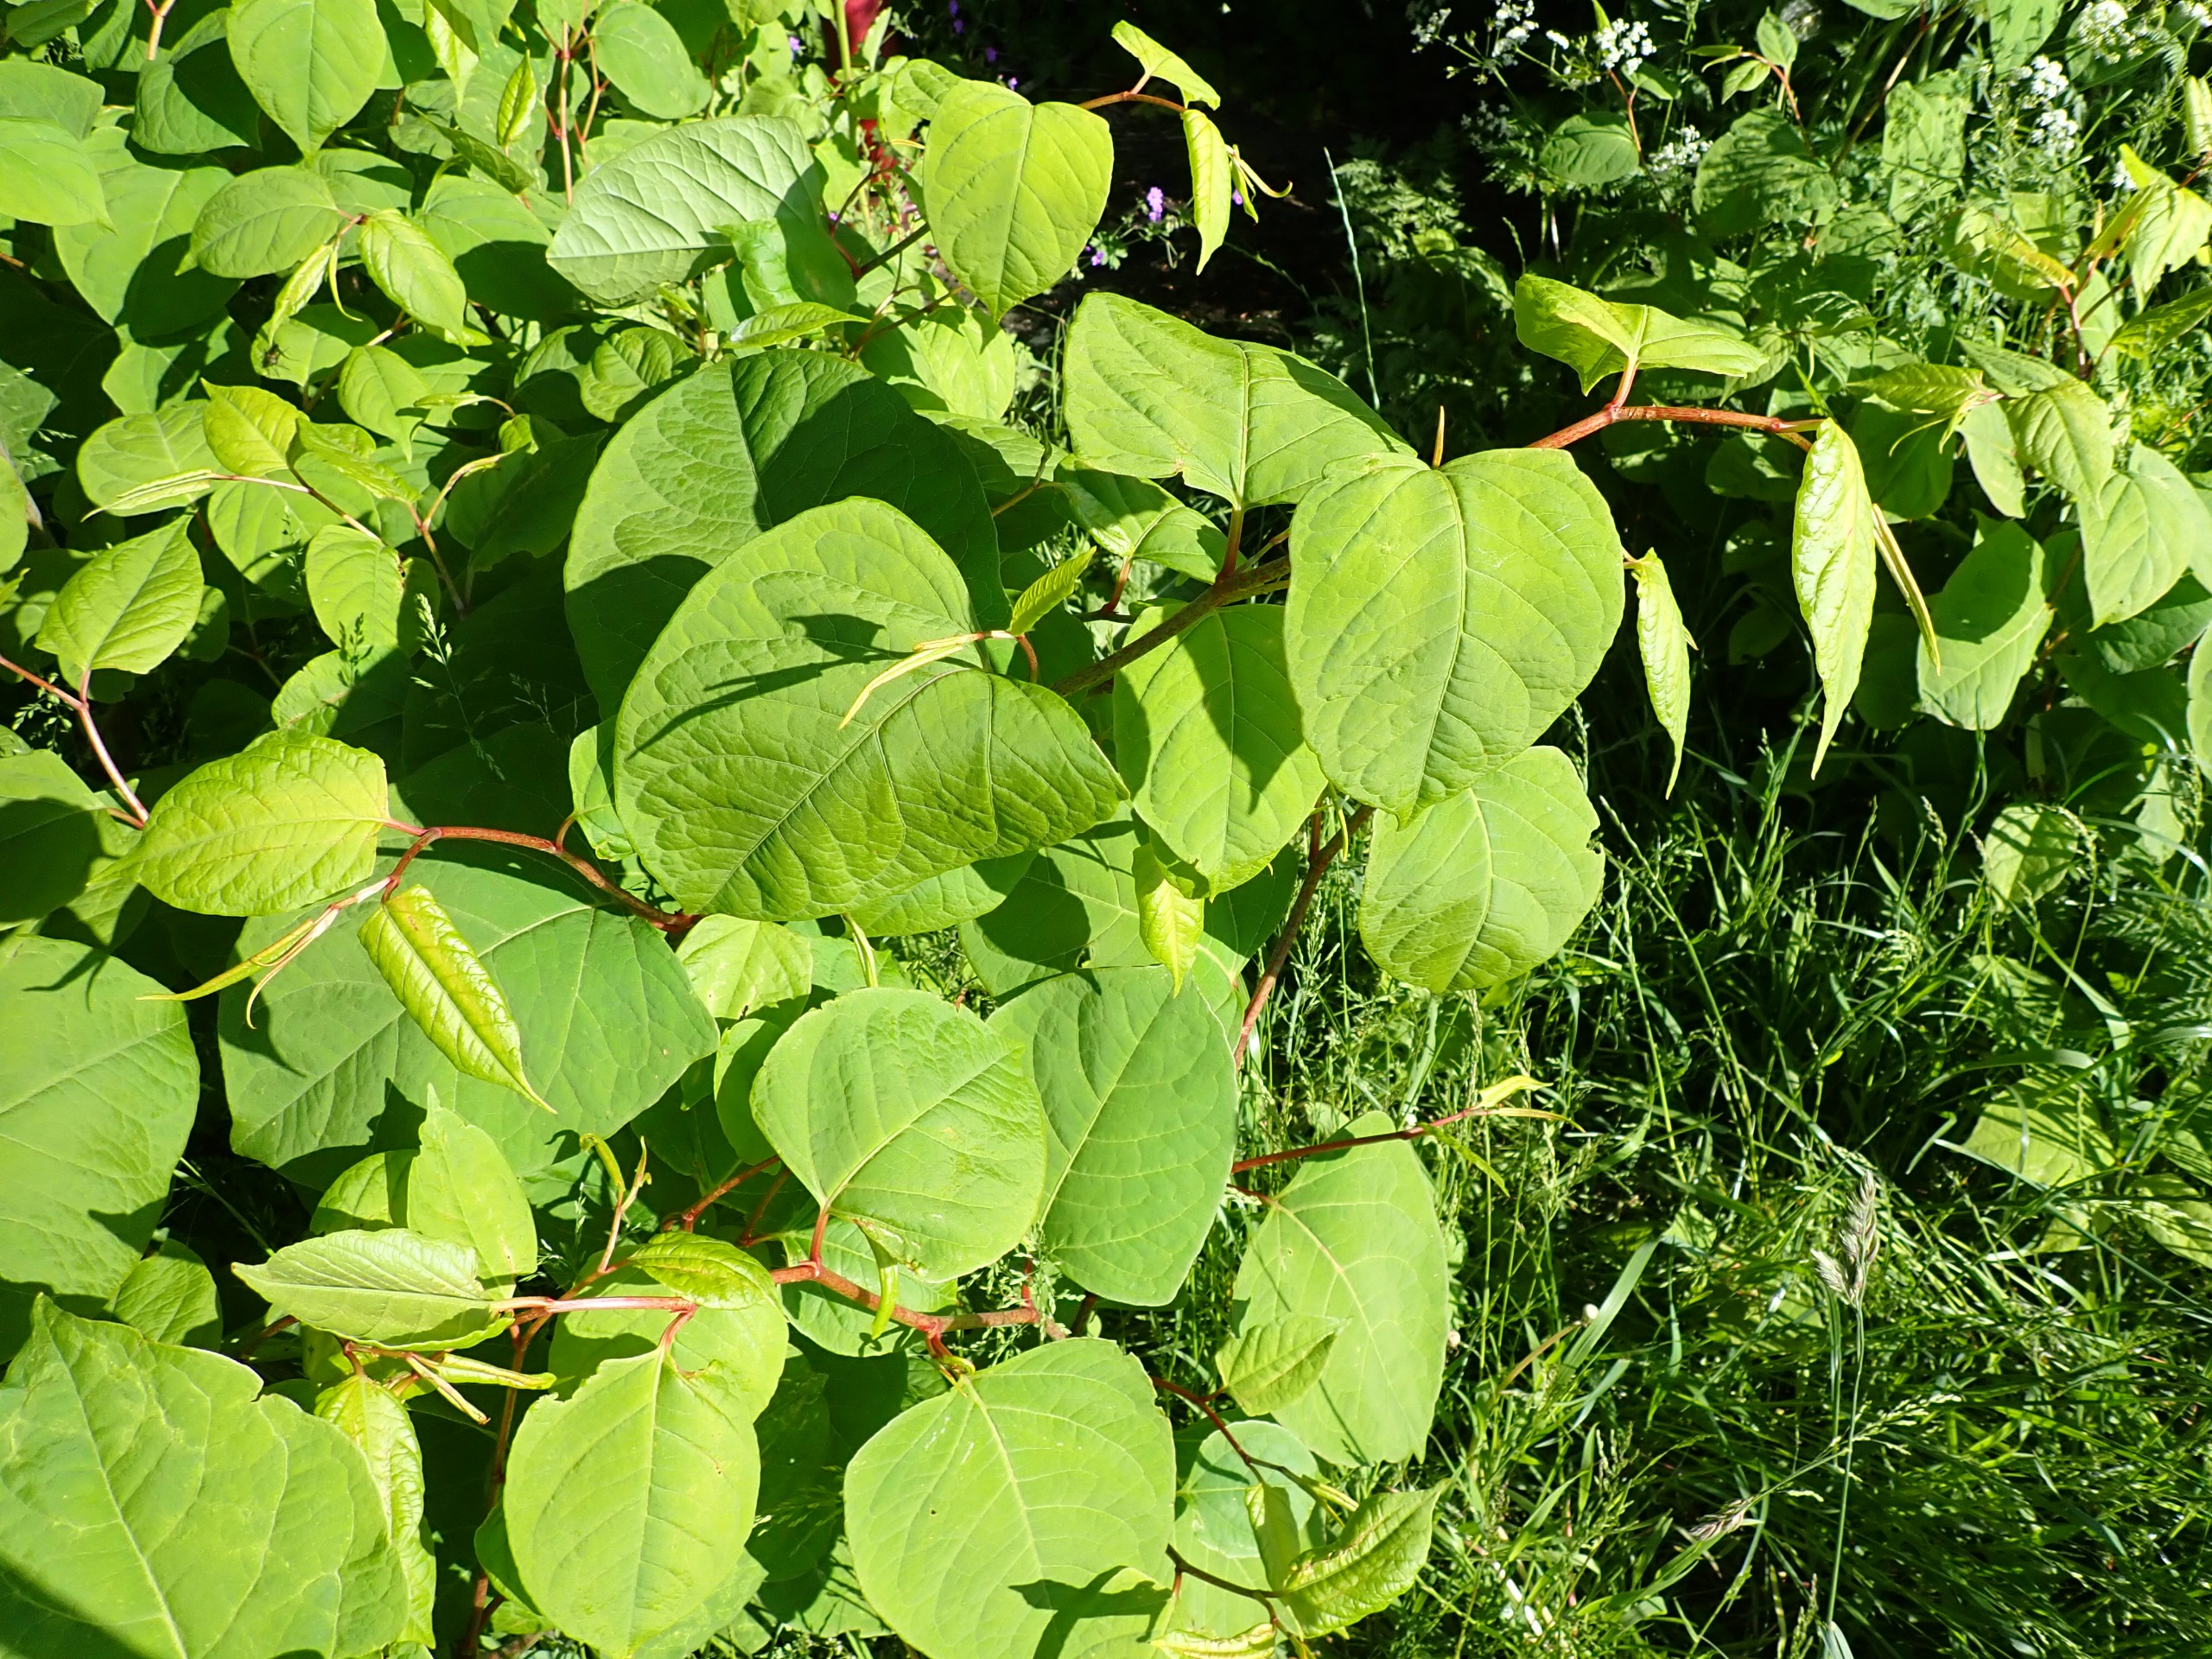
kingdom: Plantae
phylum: Tracheophyta
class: Magnoliopsida
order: Caryophyllales
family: Polygonaceae
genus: Reynoutria
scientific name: Reynoutria japonica
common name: Japan-pileurt
